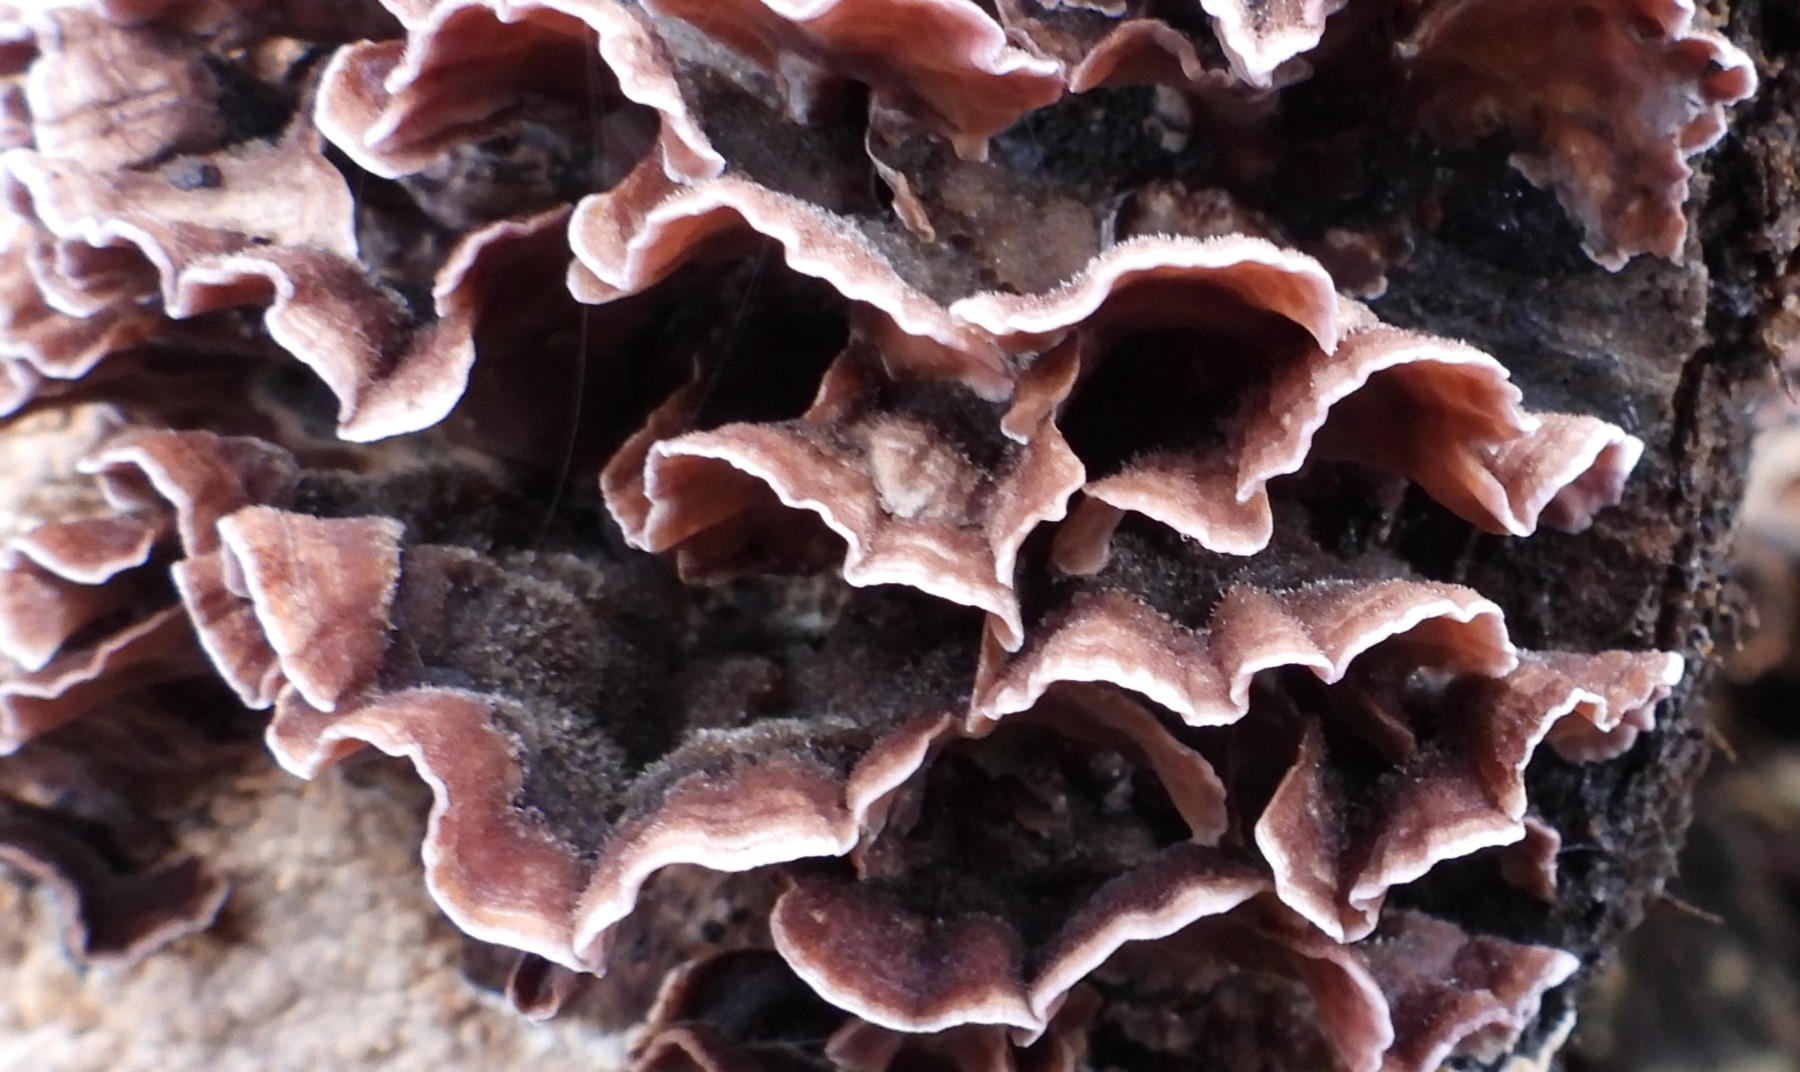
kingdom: Fungi
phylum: Basidiomycota
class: Agaricomycetes
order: Agaricales
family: Cyphellaceae
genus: Chondrostereum
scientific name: Chondrostereum purpureum
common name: purpurlædersvamp
